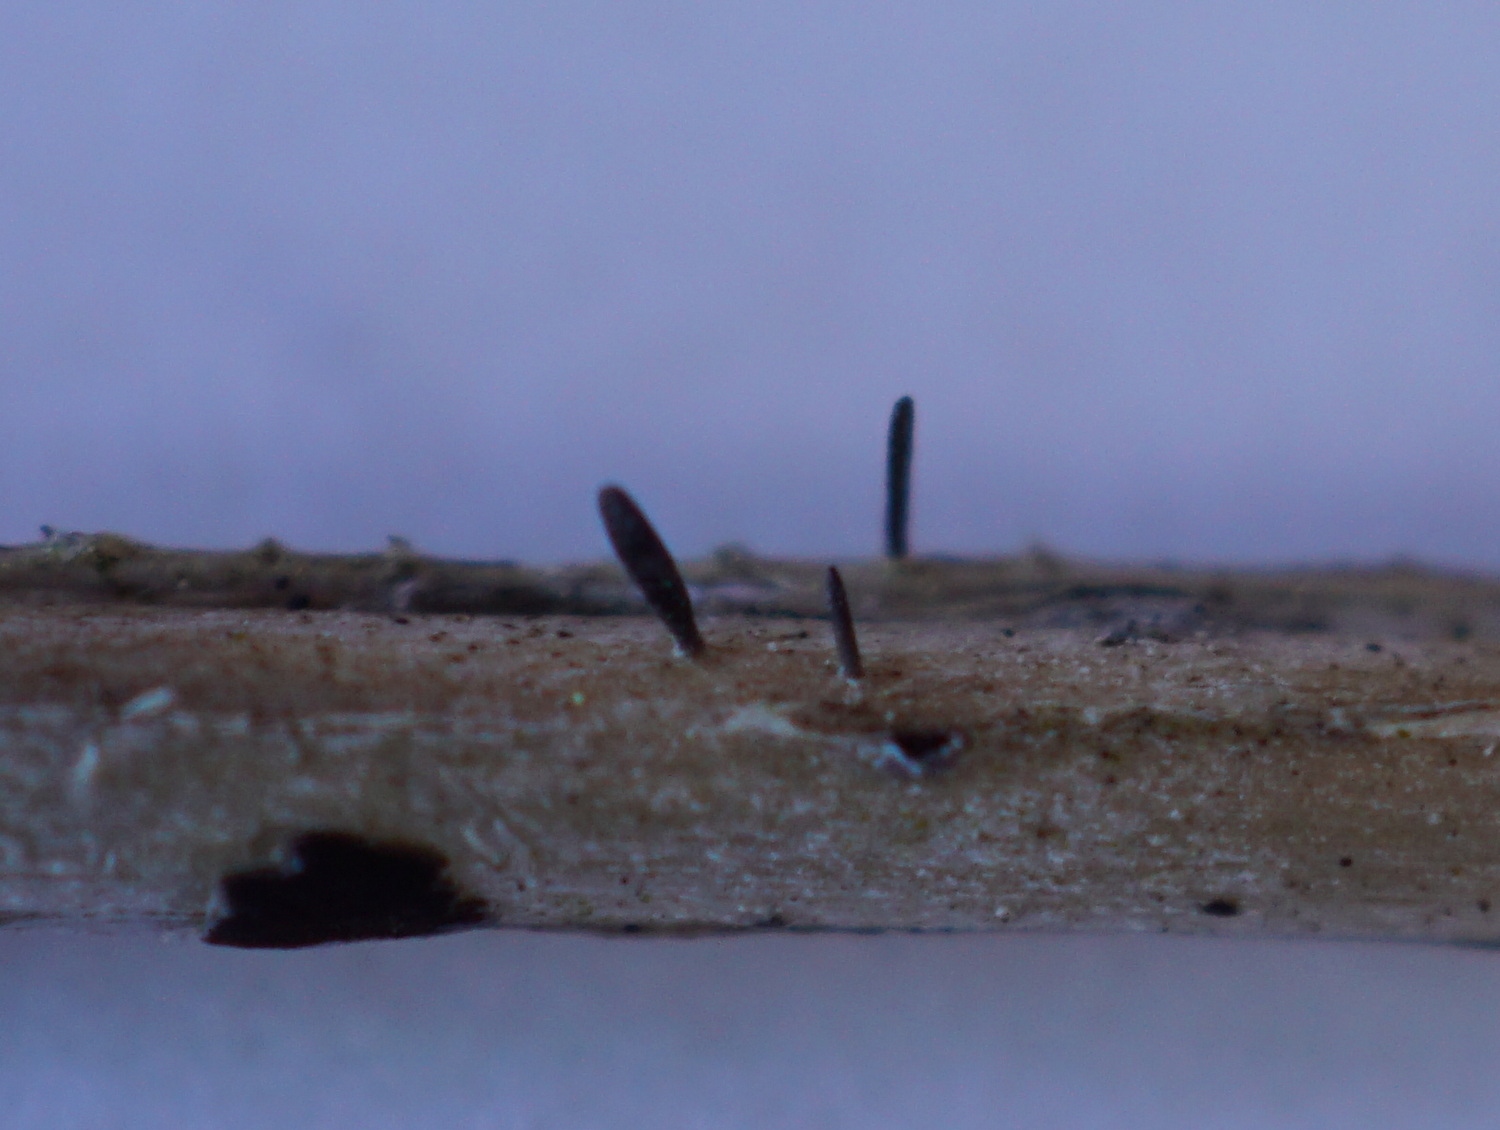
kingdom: Fungi
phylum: Ascomycota
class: Dothideomycetes
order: Acrospermales
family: Acrospermaceae
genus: Acrospermum
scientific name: Acrospermum pallidulum
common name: snerre-stængeltunge
